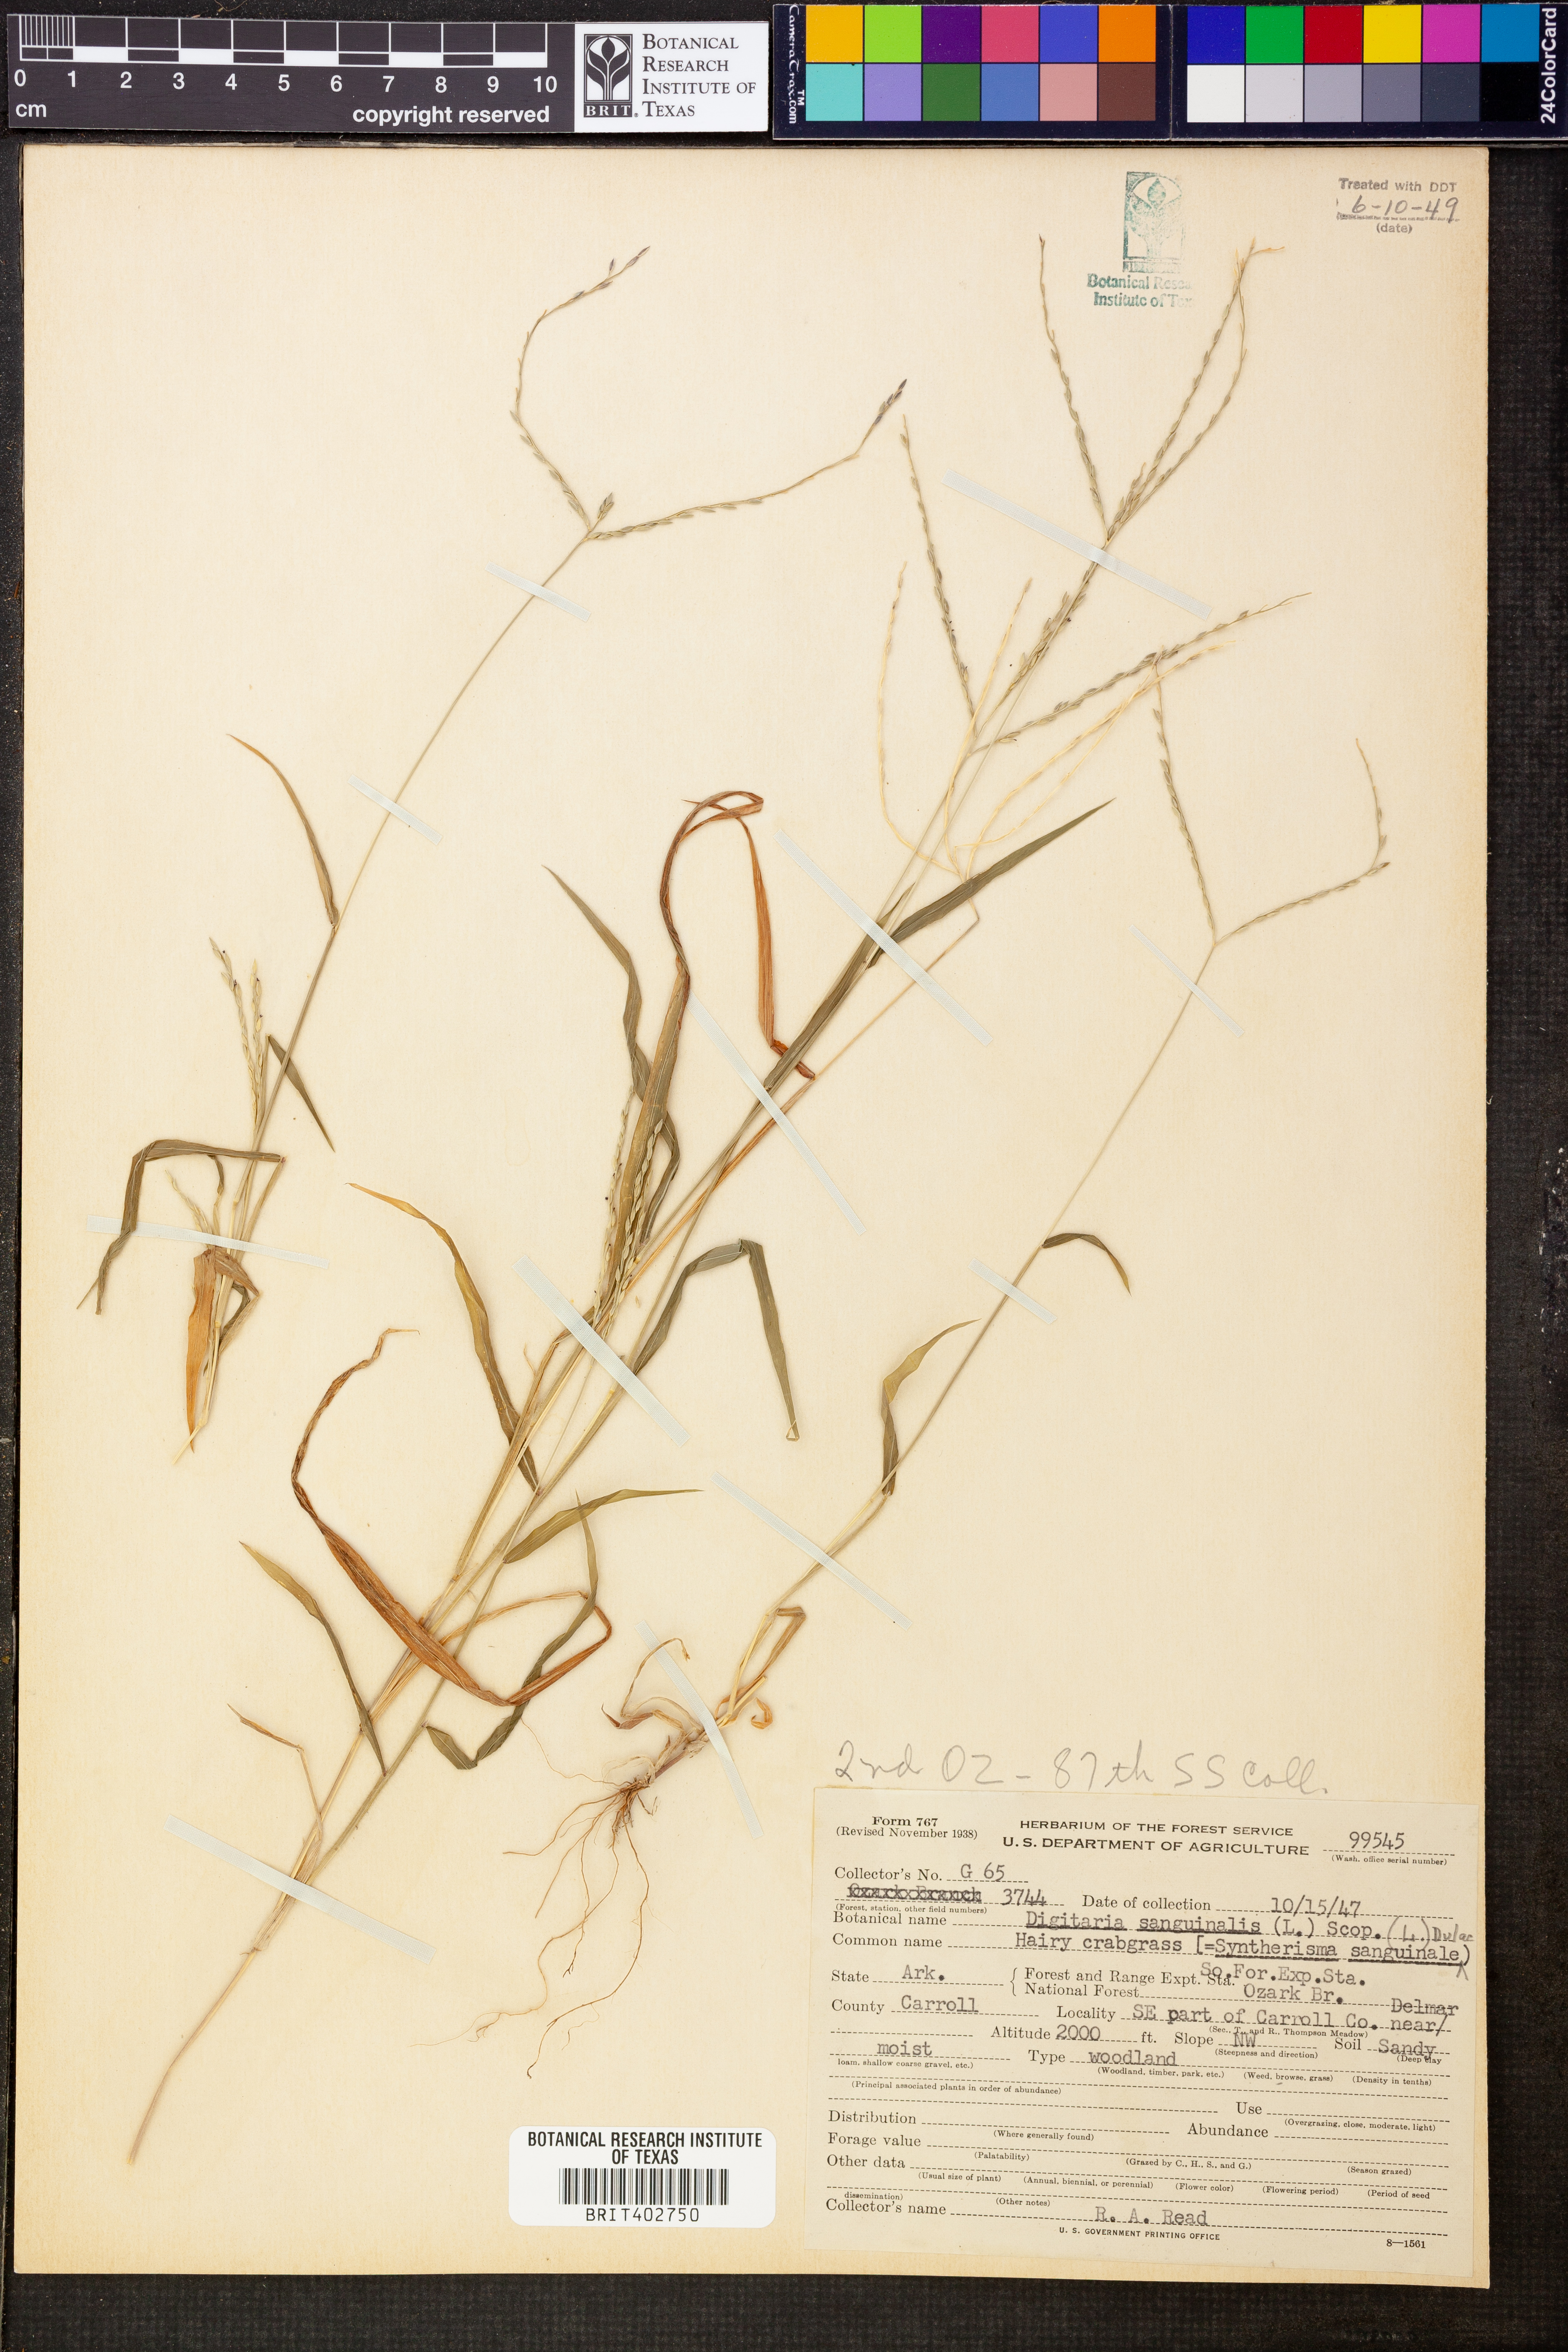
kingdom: Plantae
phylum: Tracheophyta
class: Liliopsida
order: Poales
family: Poaceae
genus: Digitaria
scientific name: Digitaria sanguinalis
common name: Hairy crabgrass
